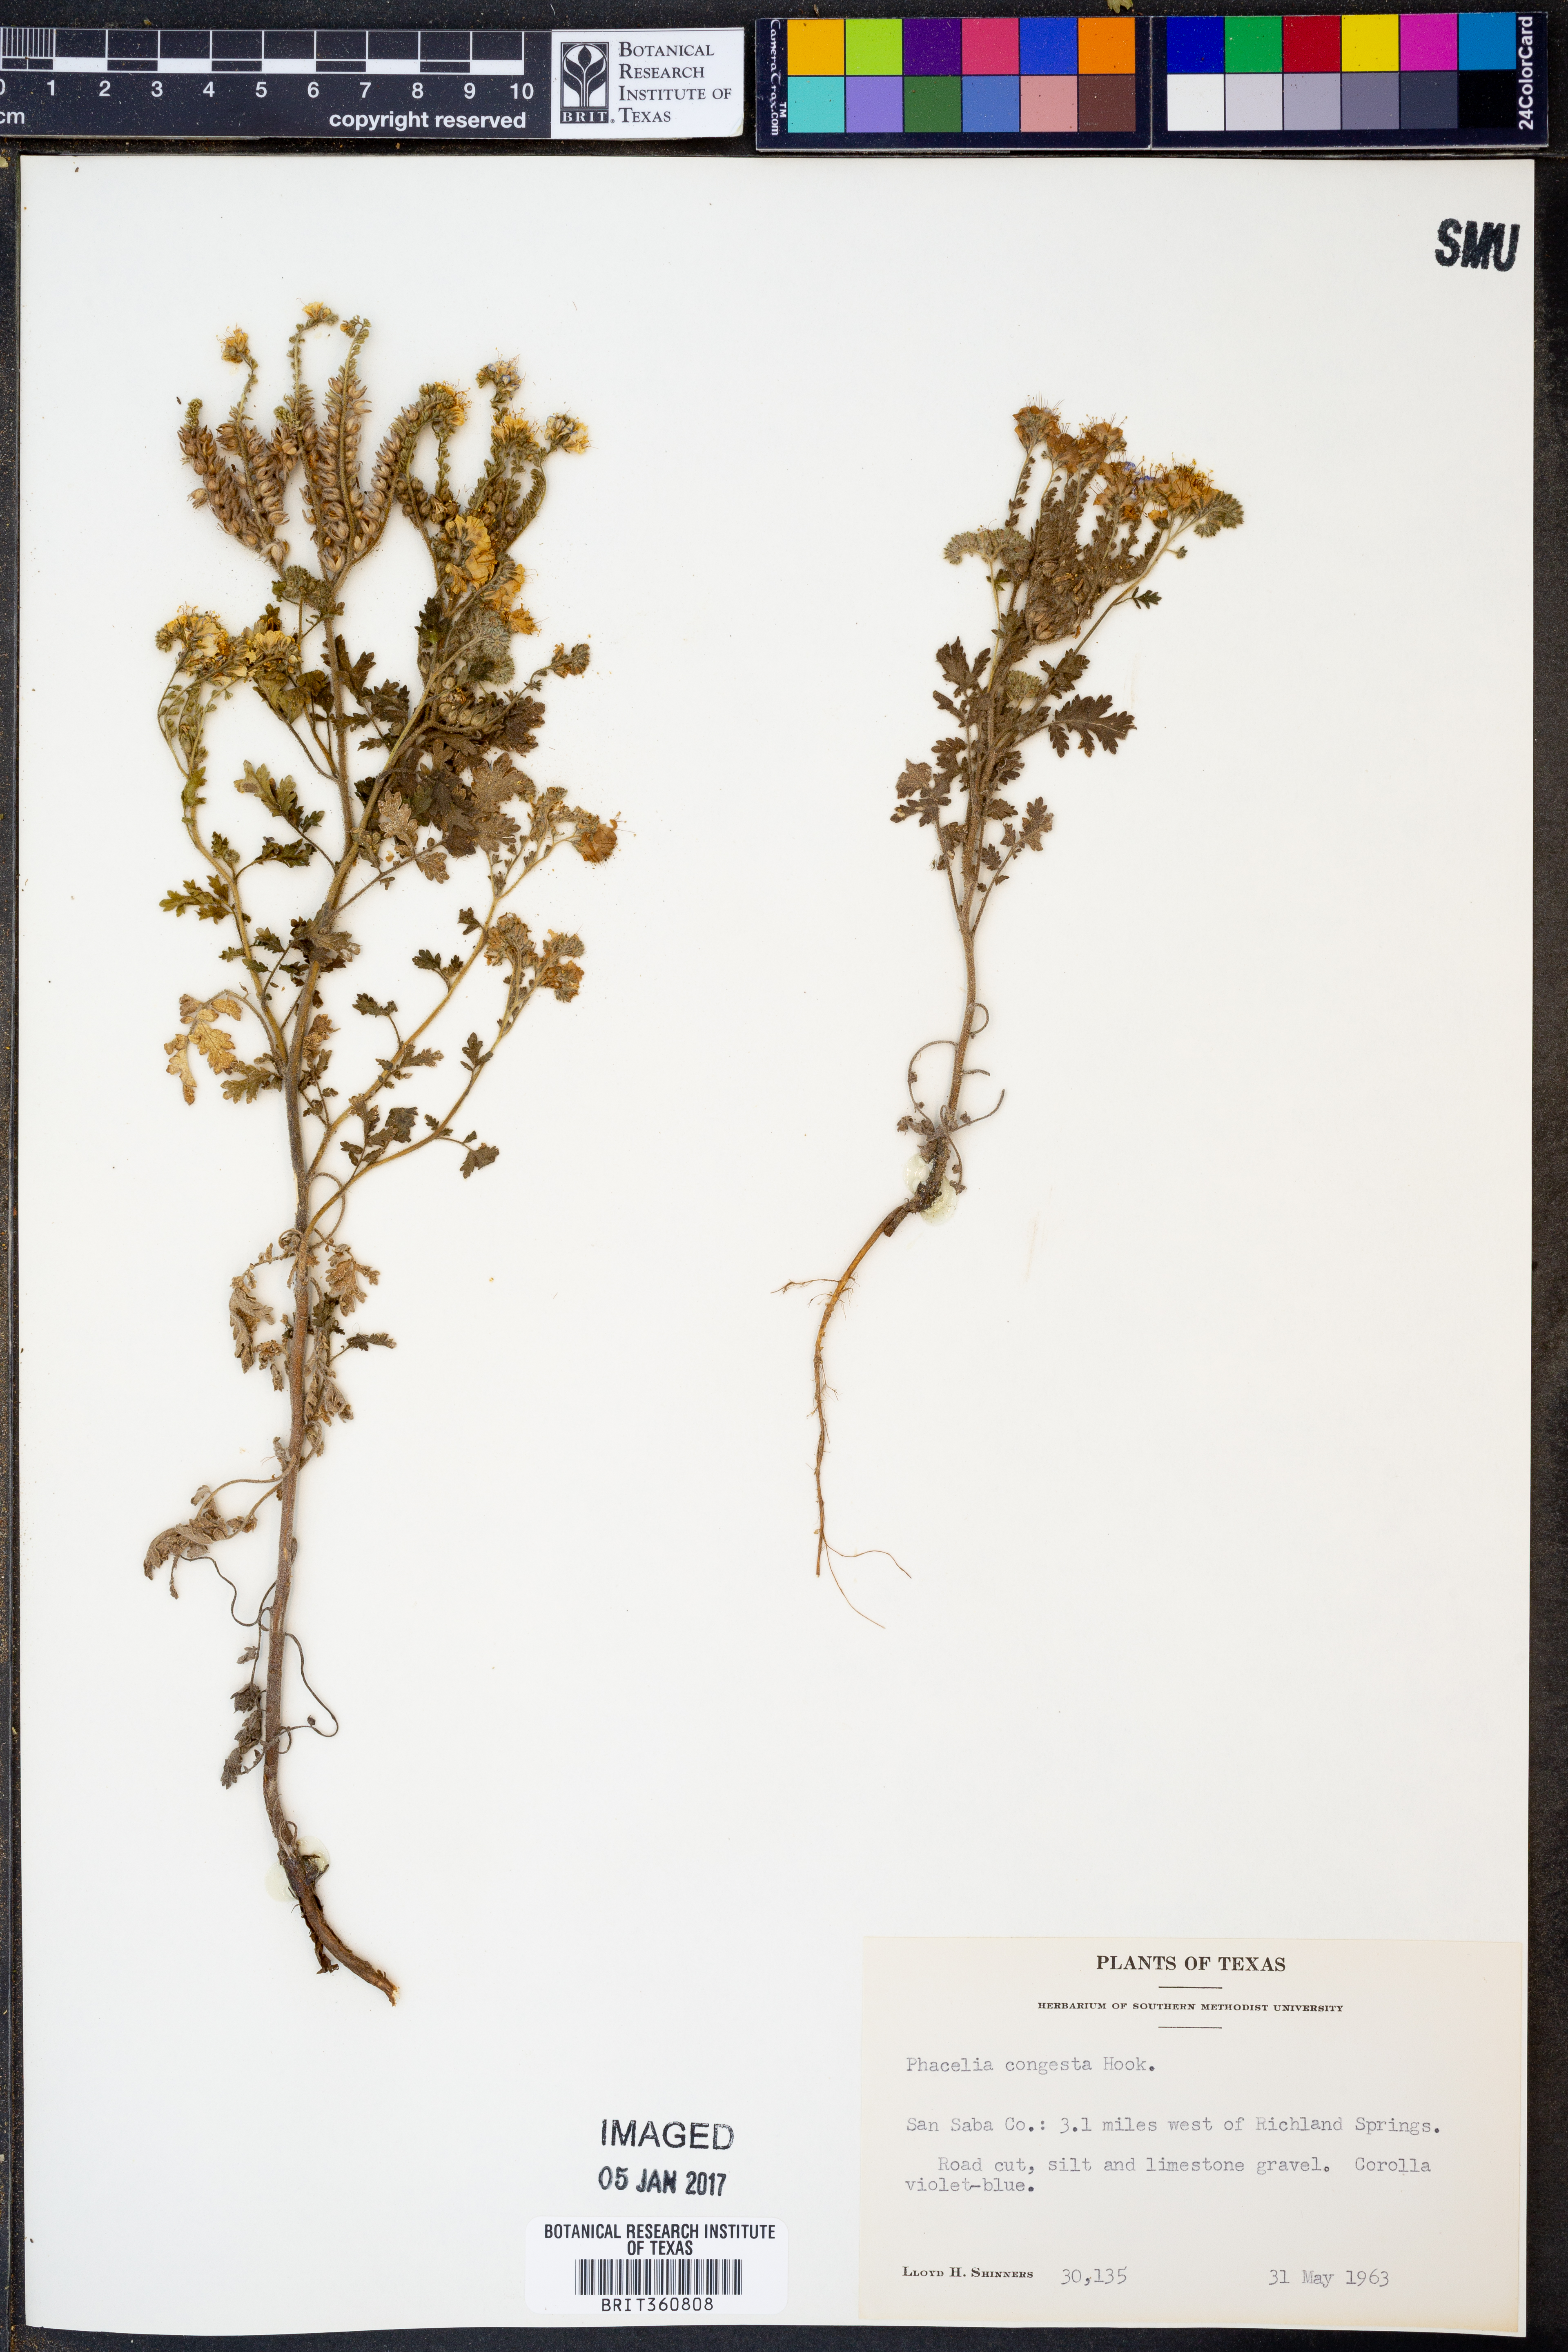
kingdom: Plantae
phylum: Tracheophyta
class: Magnoliopsida
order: Boraginales
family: Hydrophyllaceae
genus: Phacelia
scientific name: Phacelia congesta
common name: Blue curls
